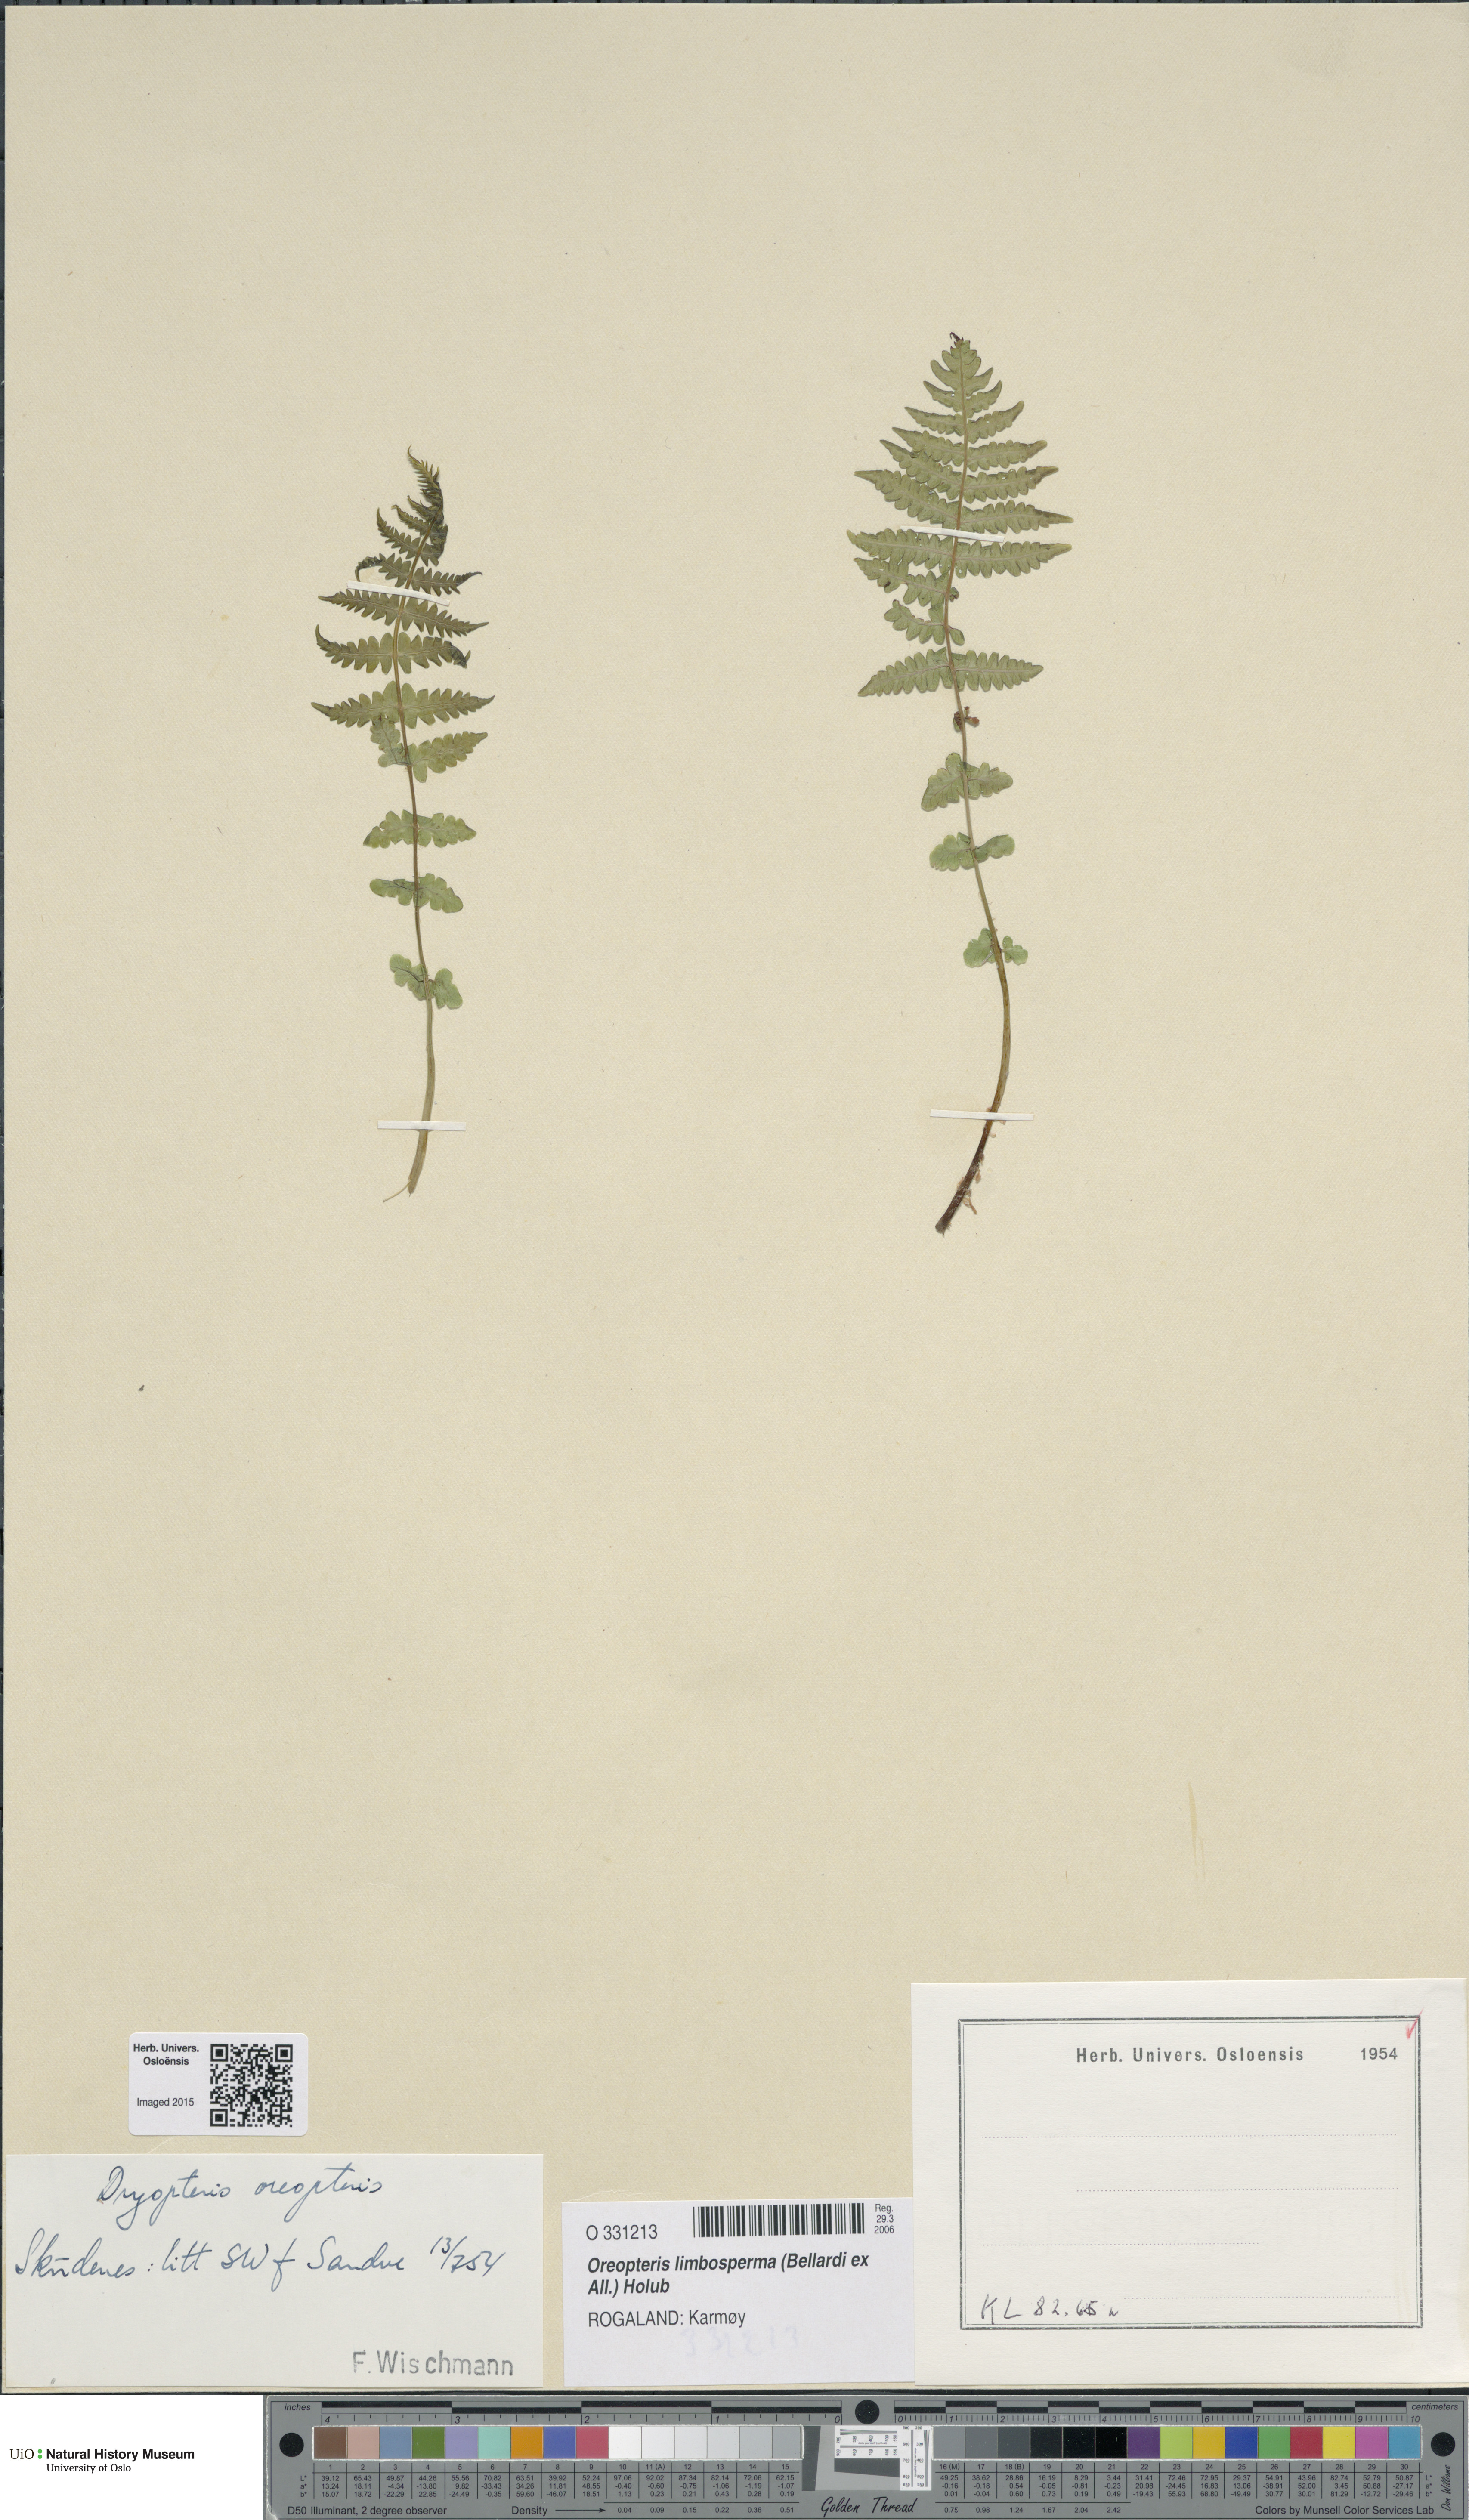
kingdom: Plantae
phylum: Tracheophyta
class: Polypodiopsida
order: Polypodiales
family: Thelypteridaceae
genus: Oreopteris
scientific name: Oreopteris limbosperma
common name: Lemon-scented fern
